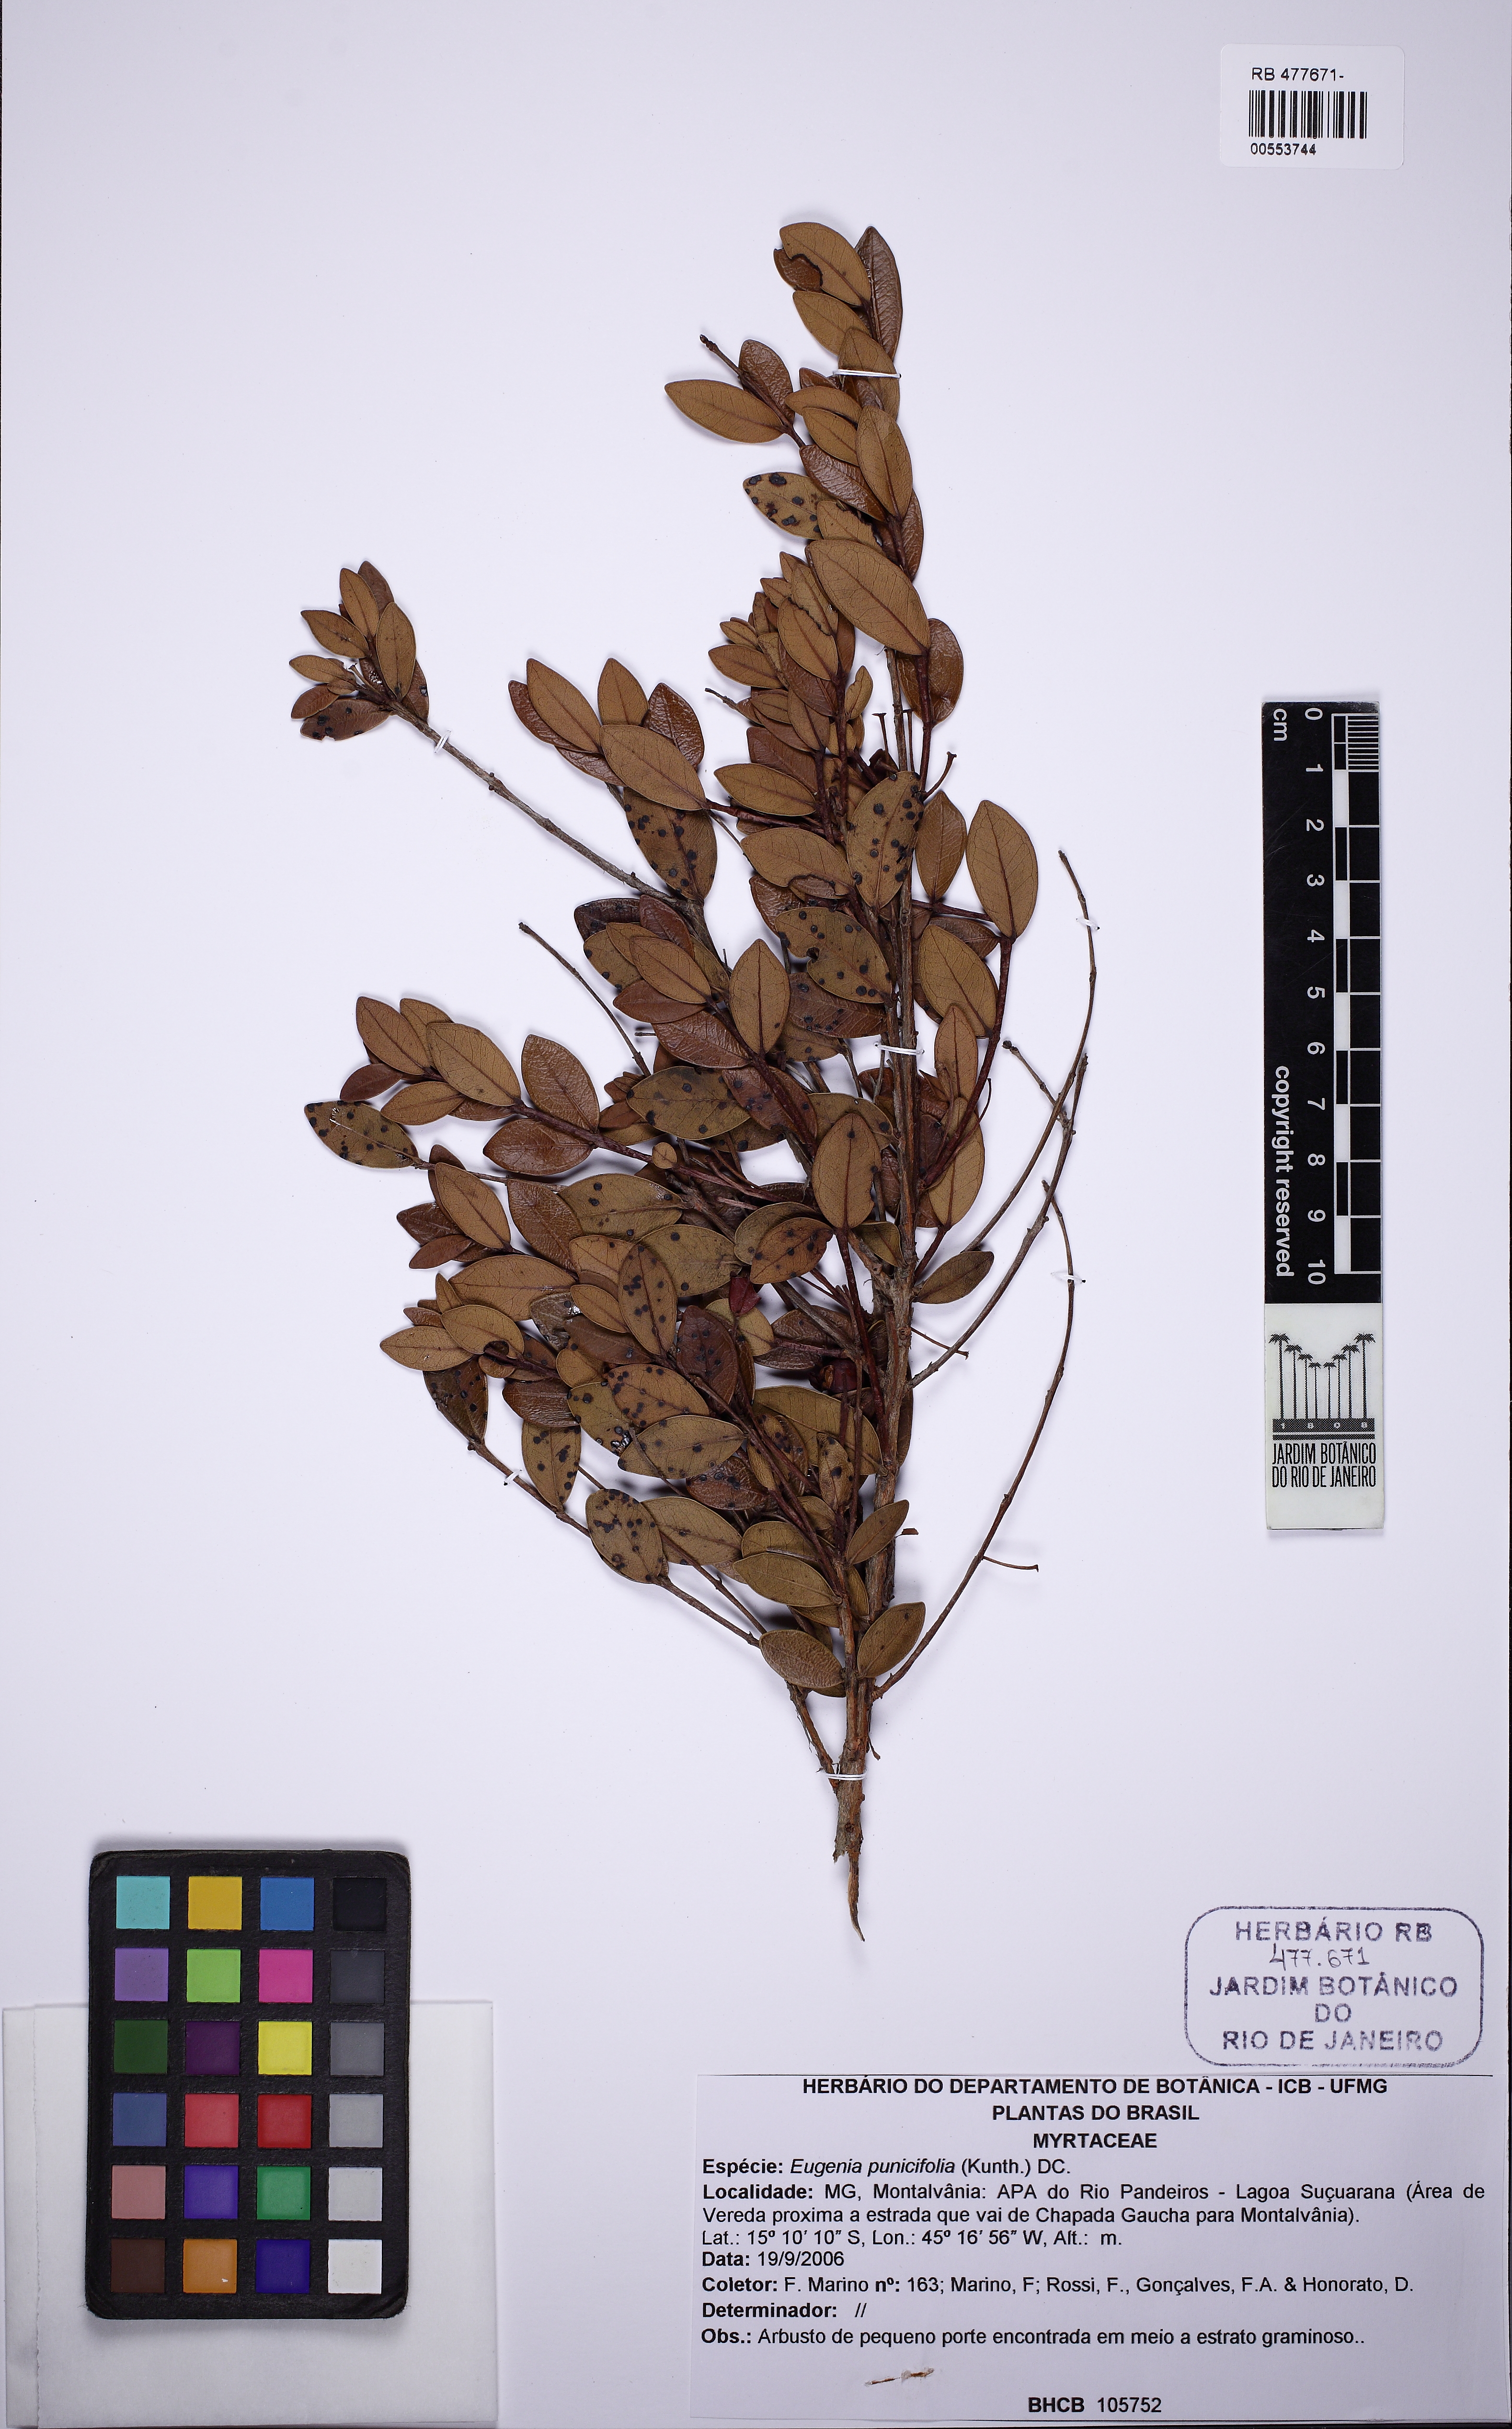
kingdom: Plantae
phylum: Tracheophyta
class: Magnoliopsida
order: Myrtales
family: Myrtaceae
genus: Eugenia
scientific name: Eugenia punicifolia
